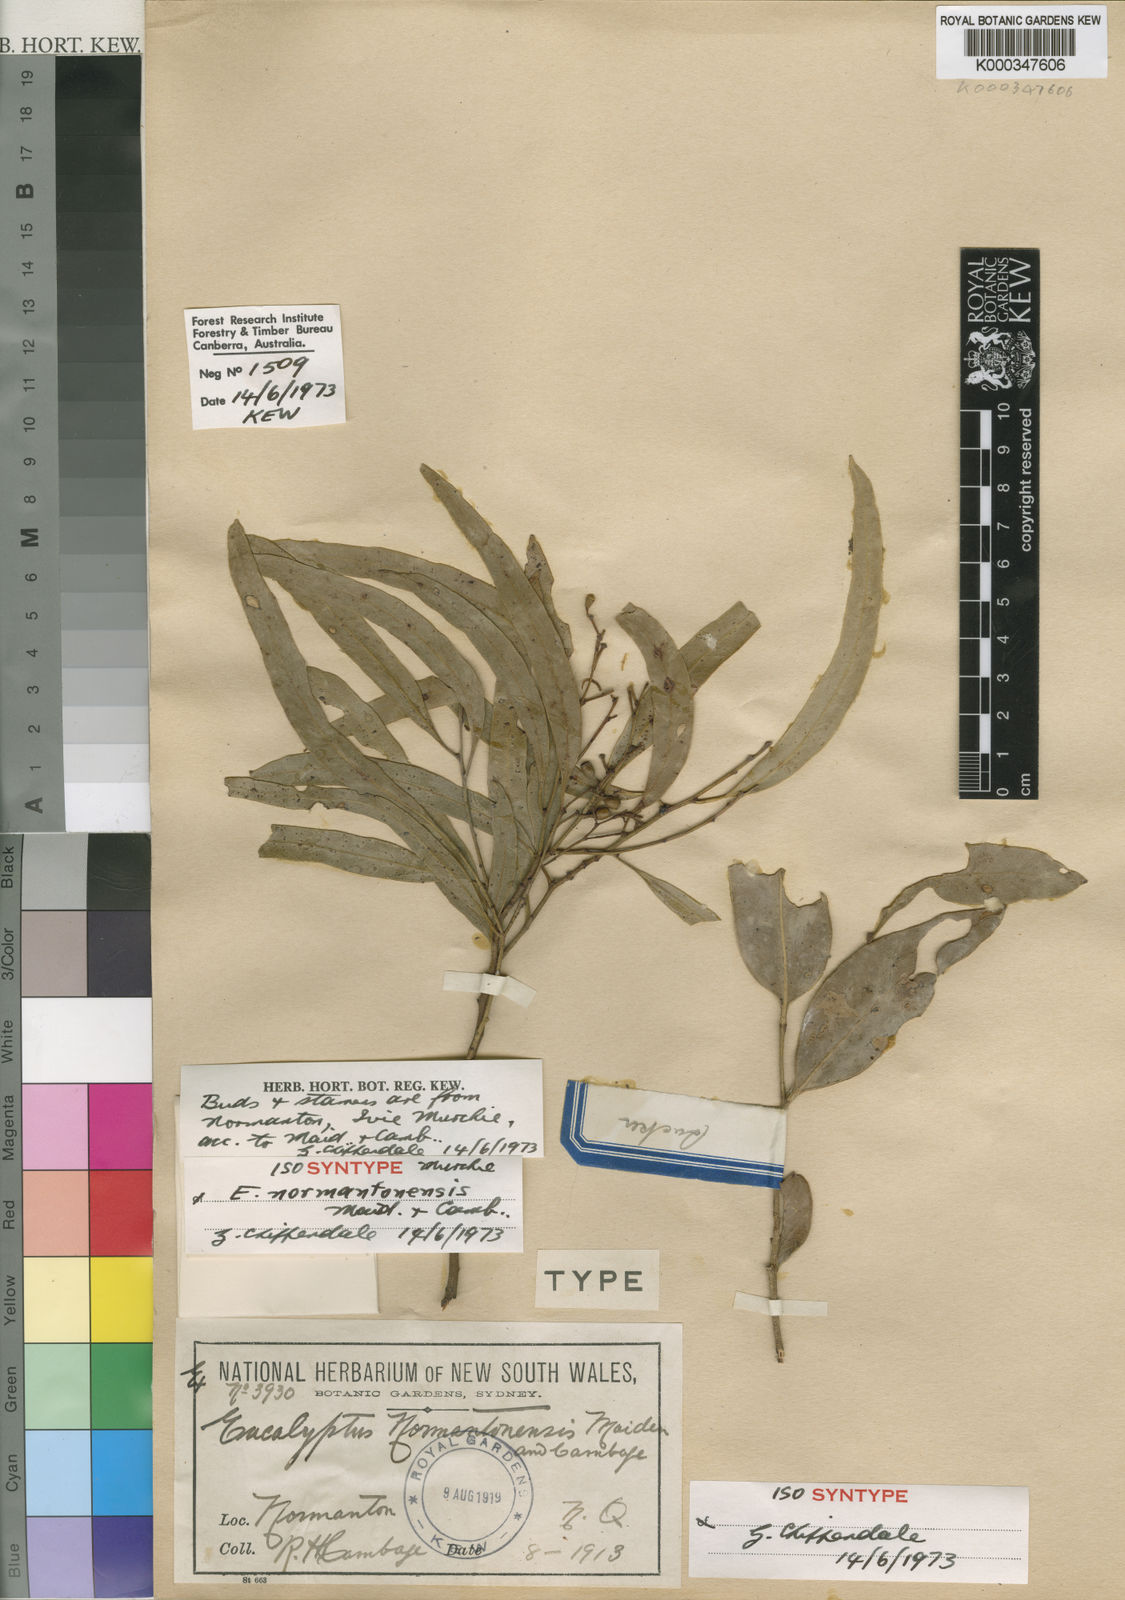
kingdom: Plantae
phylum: Tracheophyta
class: Magnoliopsida
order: Myrtales
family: Myrtaceae
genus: Eucalyptus
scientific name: Eucalyptus normantonensis
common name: Greenvale-box
